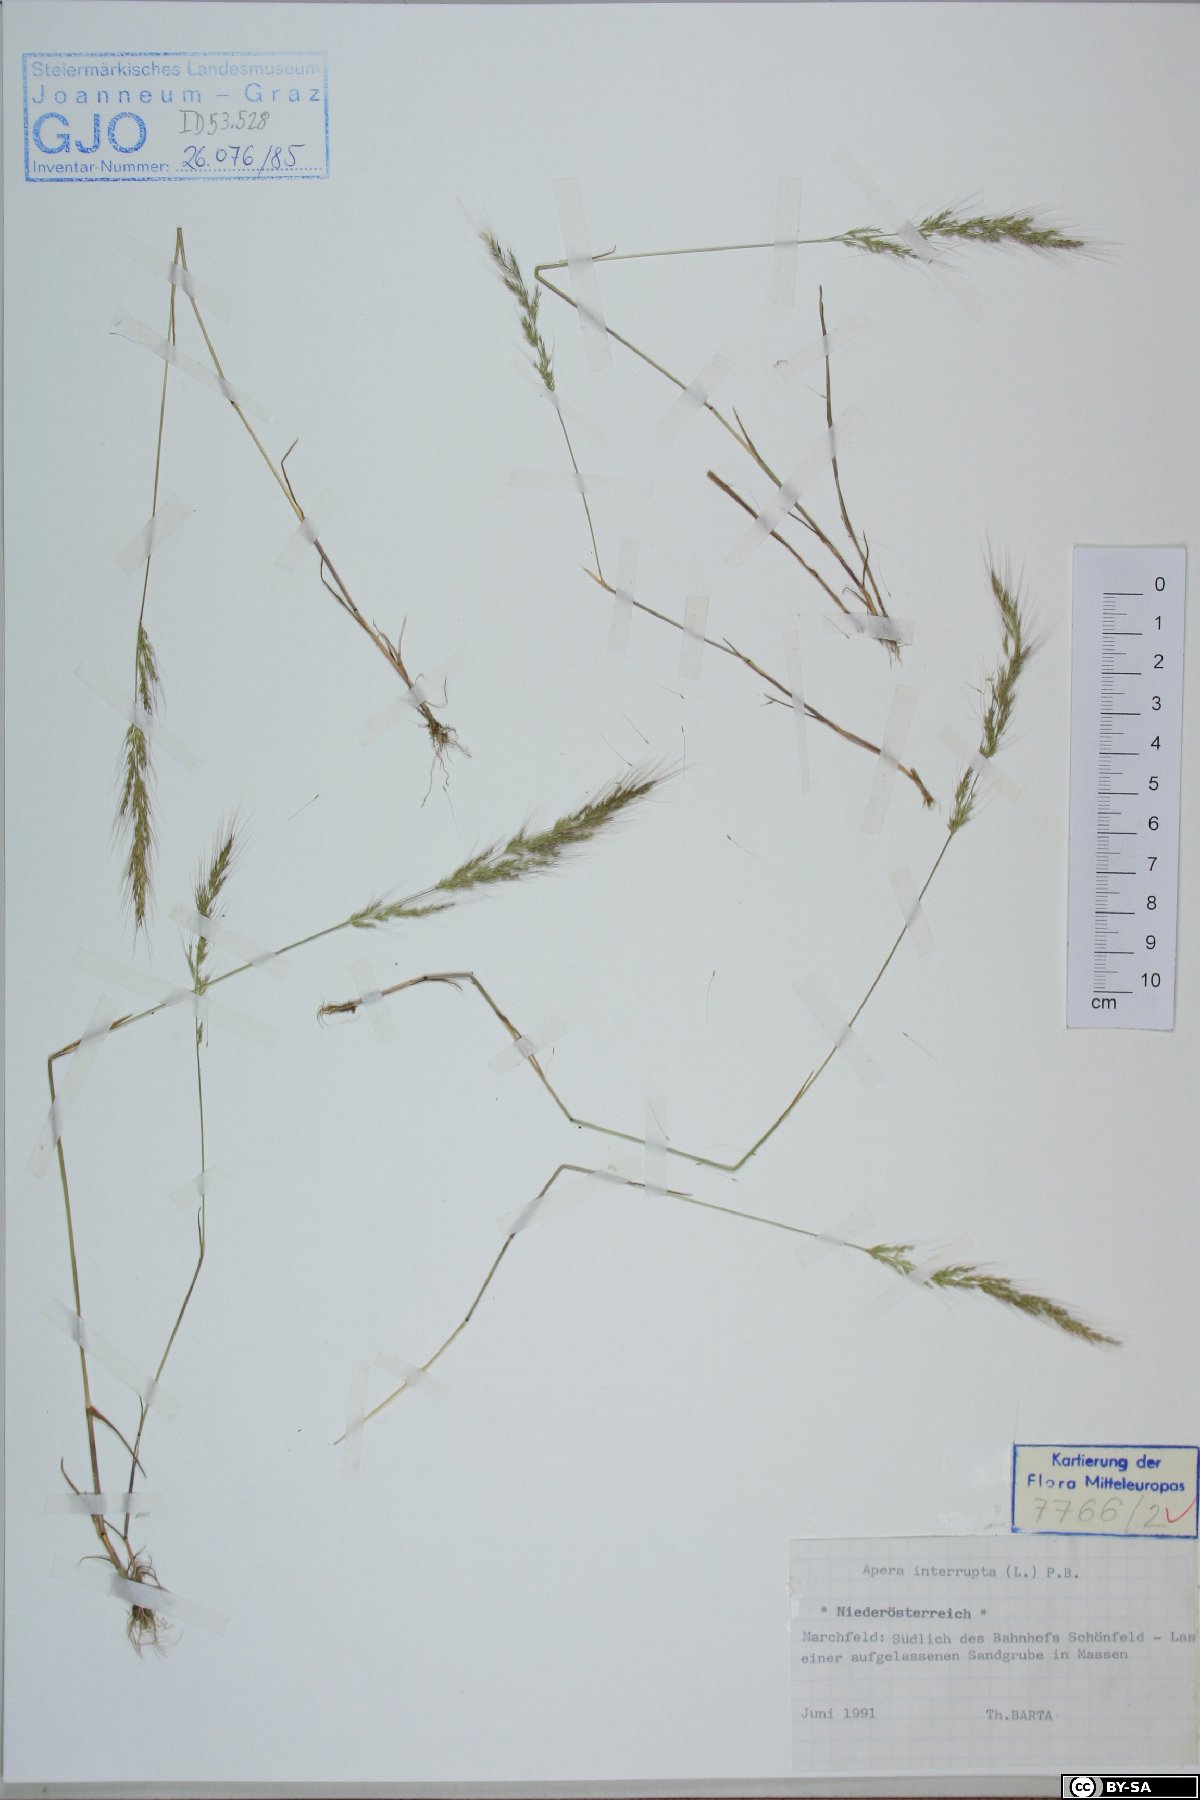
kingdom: Plantae
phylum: Tracheophyta
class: Liliopsida
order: Poales
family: Poaceae
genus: Apera
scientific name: Apera interrupta
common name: Dense silky-bent
